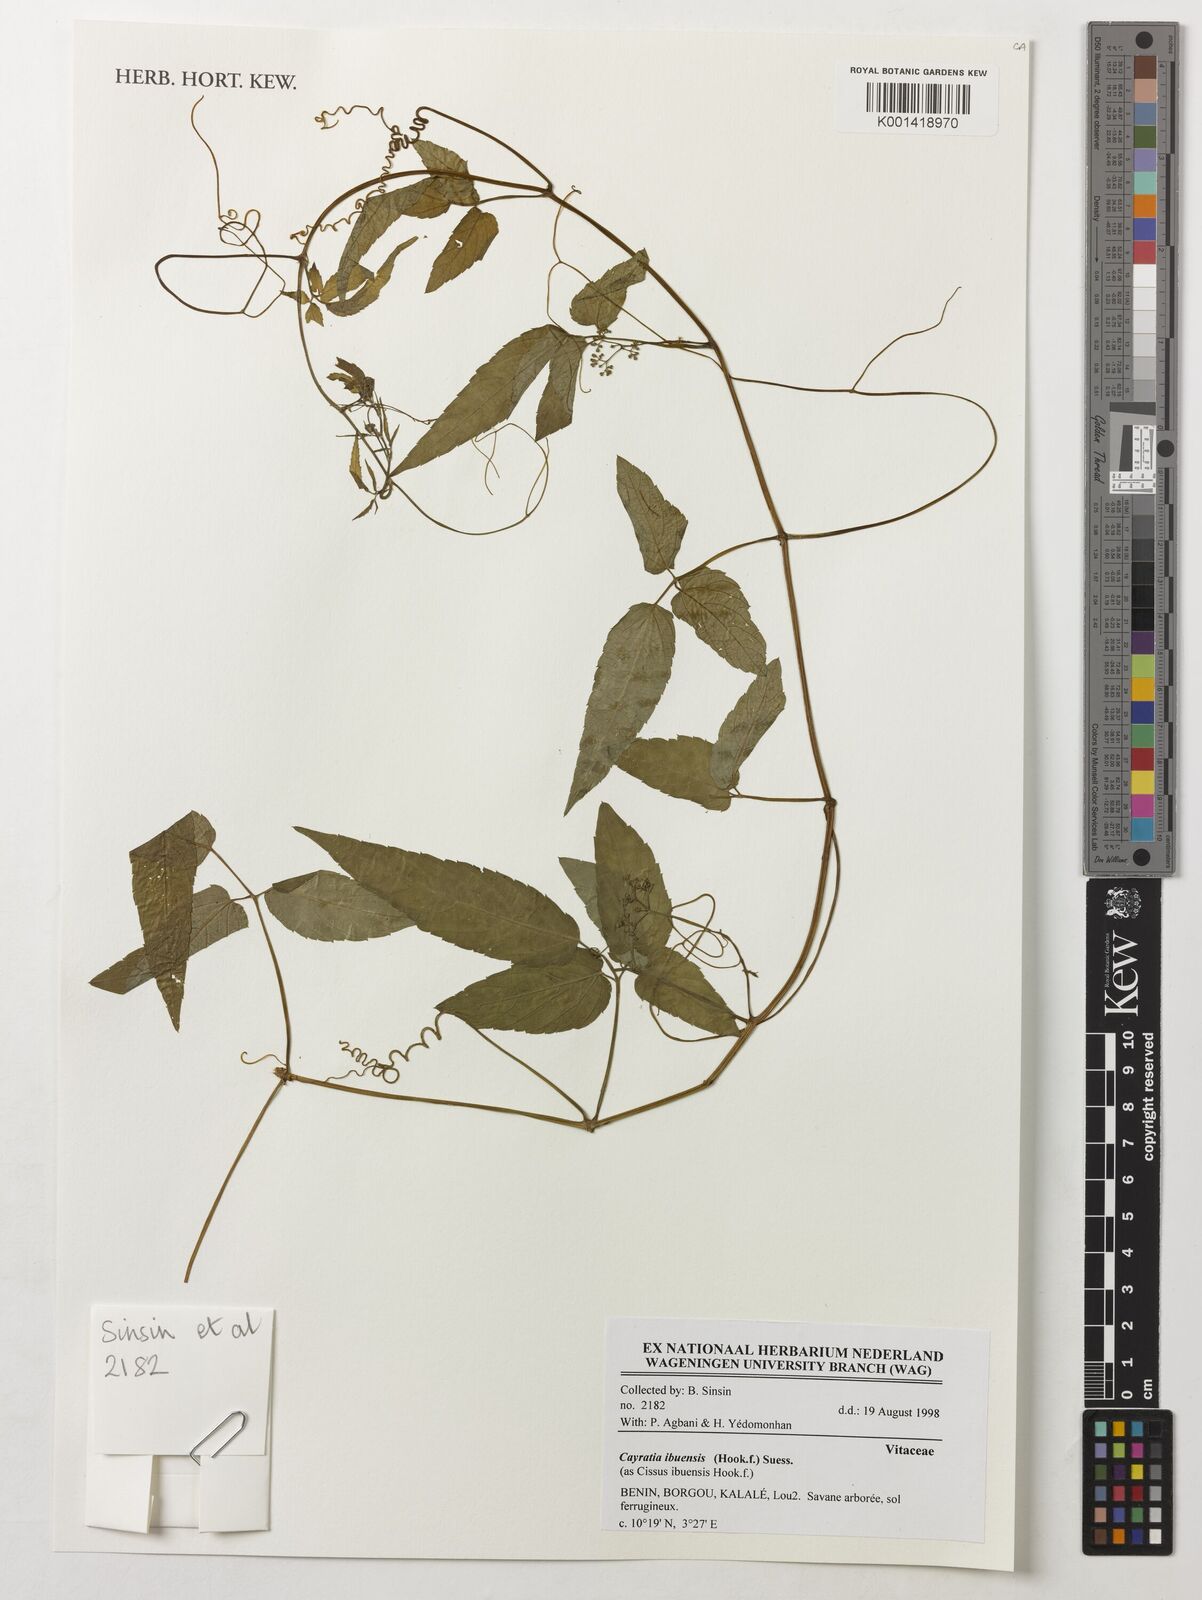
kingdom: Plantae
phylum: Tracheophyta
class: Magnoliopsida
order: Vitales
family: Vitaceae
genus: Afrocayratia
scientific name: Afrocayratia ibuensis
